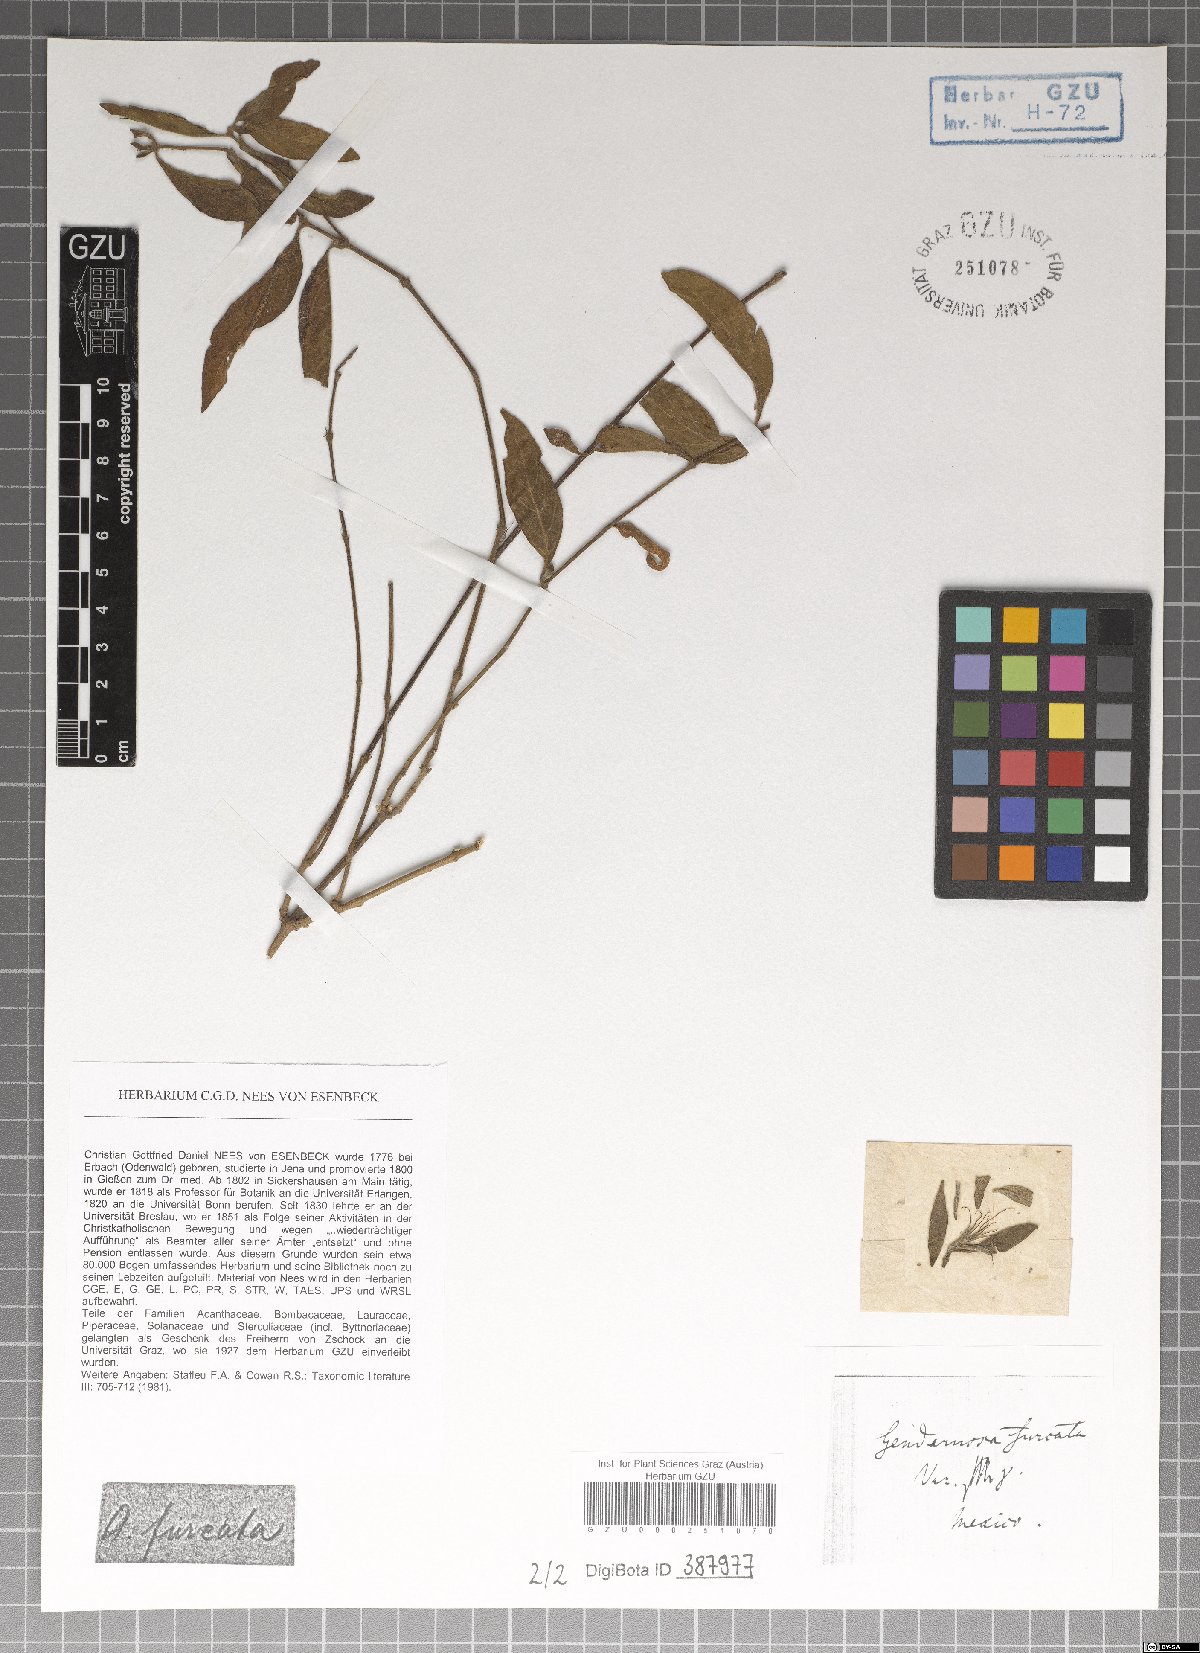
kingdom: Plantae
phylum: Tracheophyta
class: Magnoliopsida
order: Lamiales
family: Acanthaceae
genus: Justicia
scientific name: Justicia furcata
